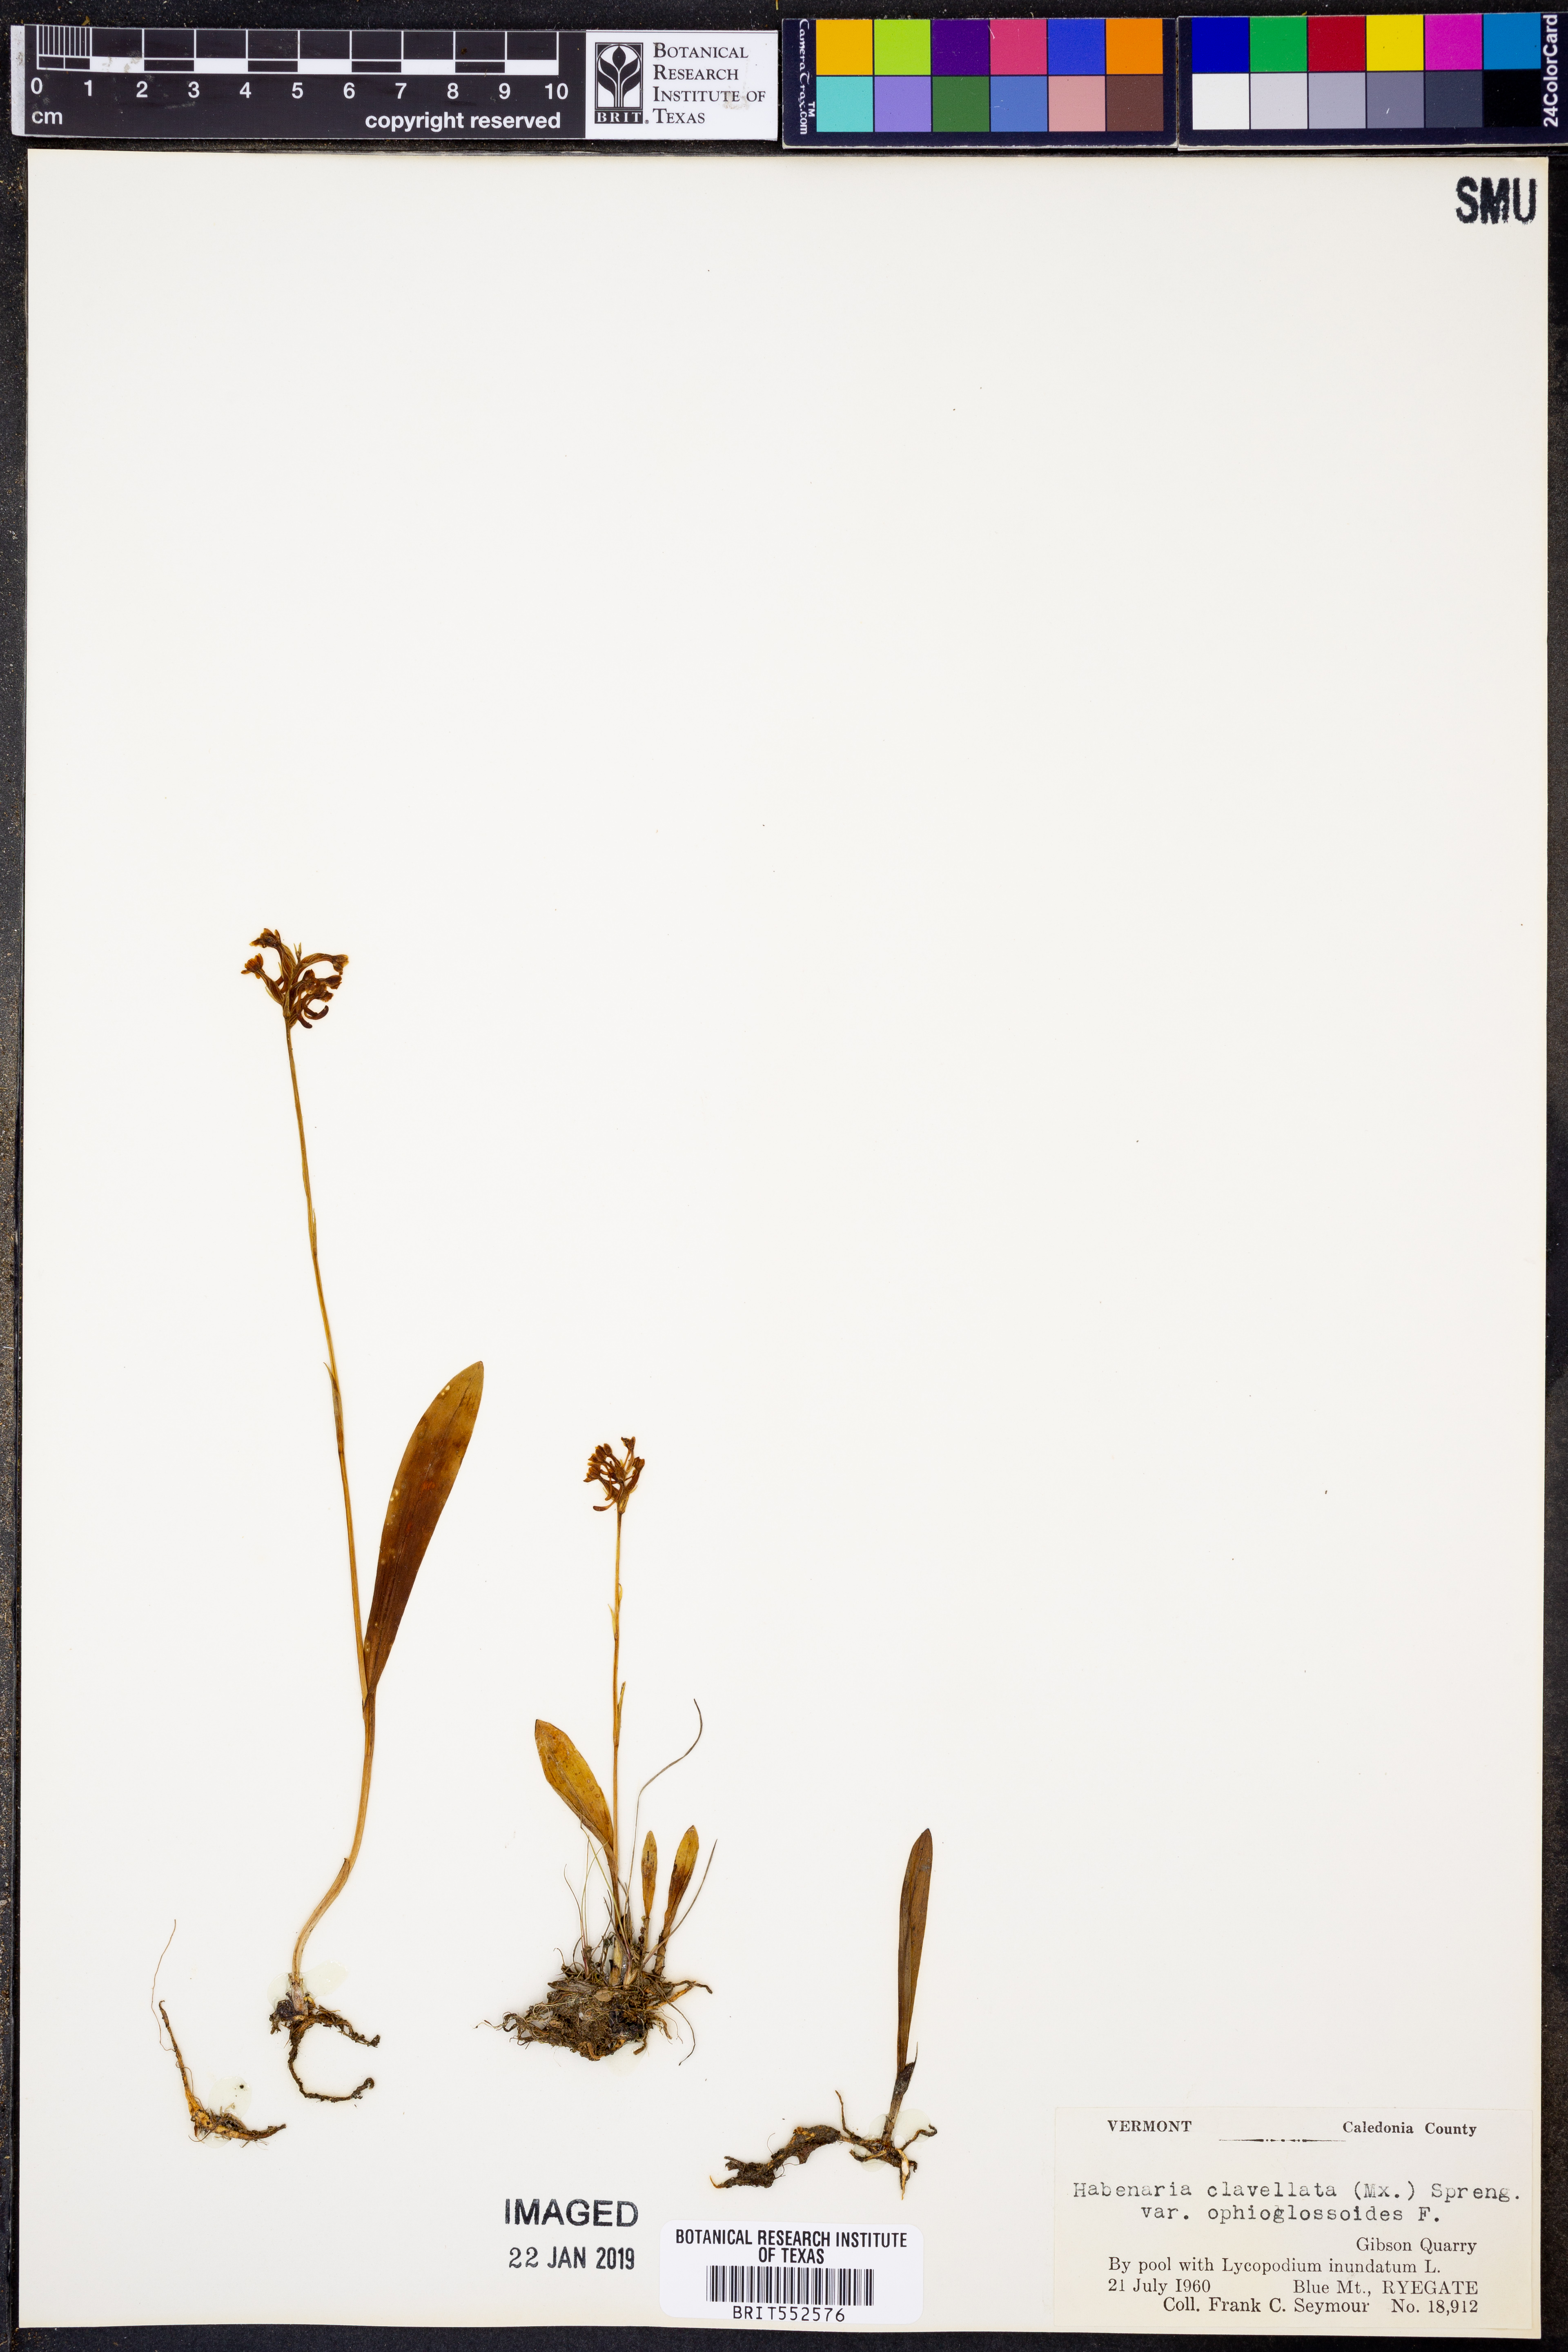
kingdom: Plantae
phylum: Tracheophyta
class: Liliopsida
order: Asparagales
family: Orchidaceae
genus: Platanthera
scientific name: Platanthera clavellata
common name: Club-spur orchid
